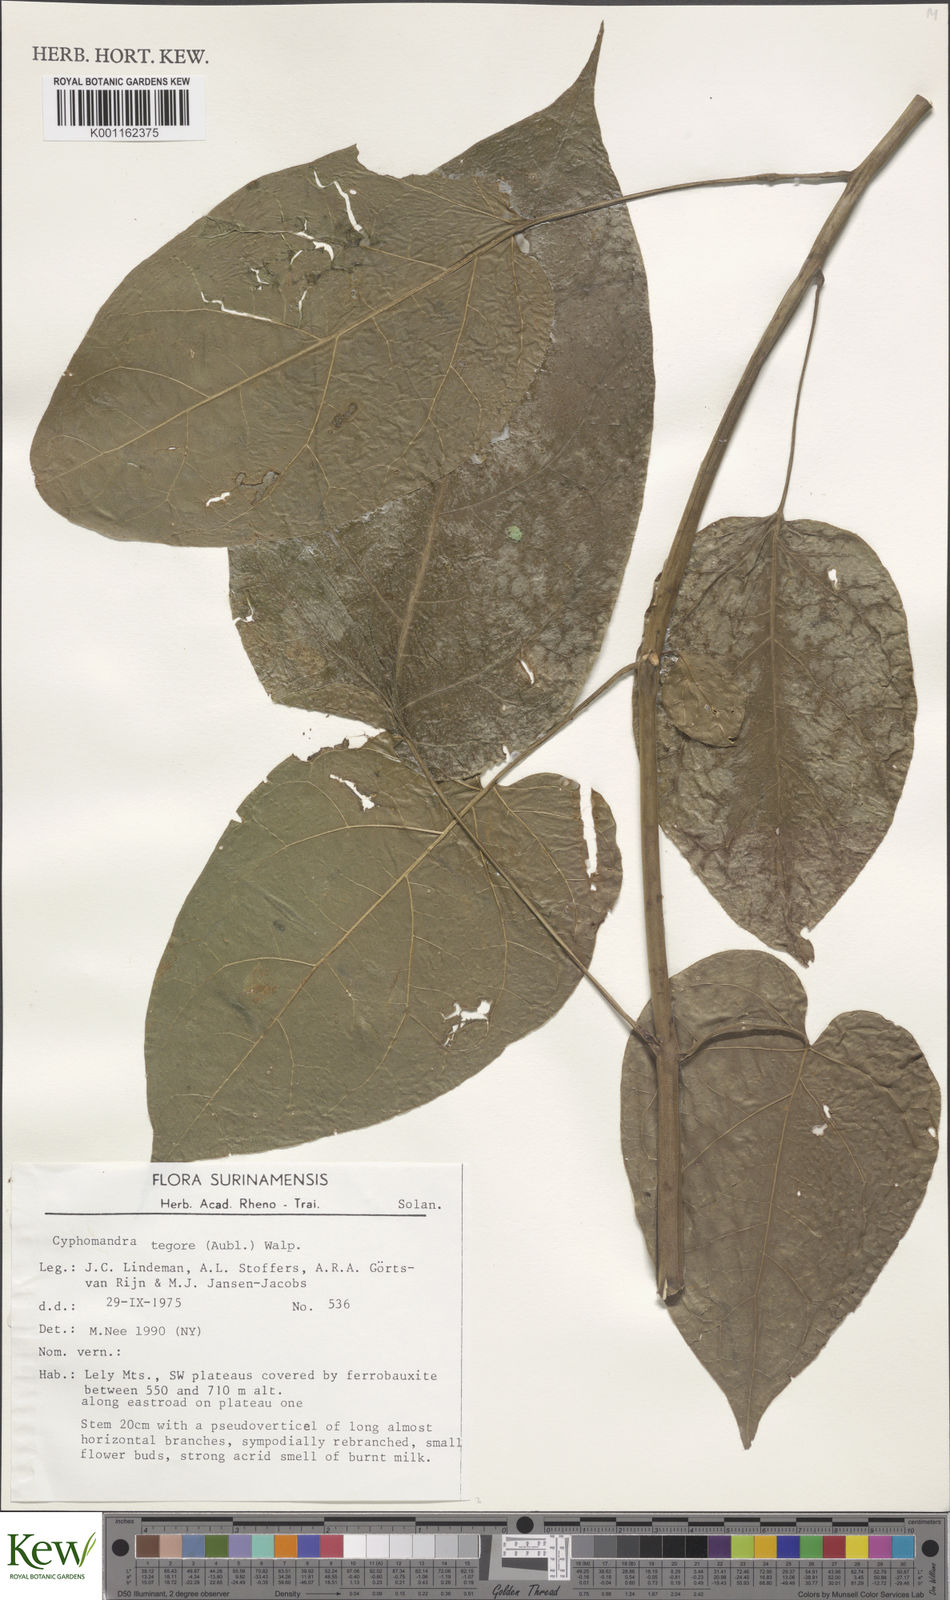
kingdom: Plantae
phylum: Tracheophyta
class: Magnoliopsida
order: Solanales
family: Solanaceae
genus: Solanum
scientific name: Solanum tegore
